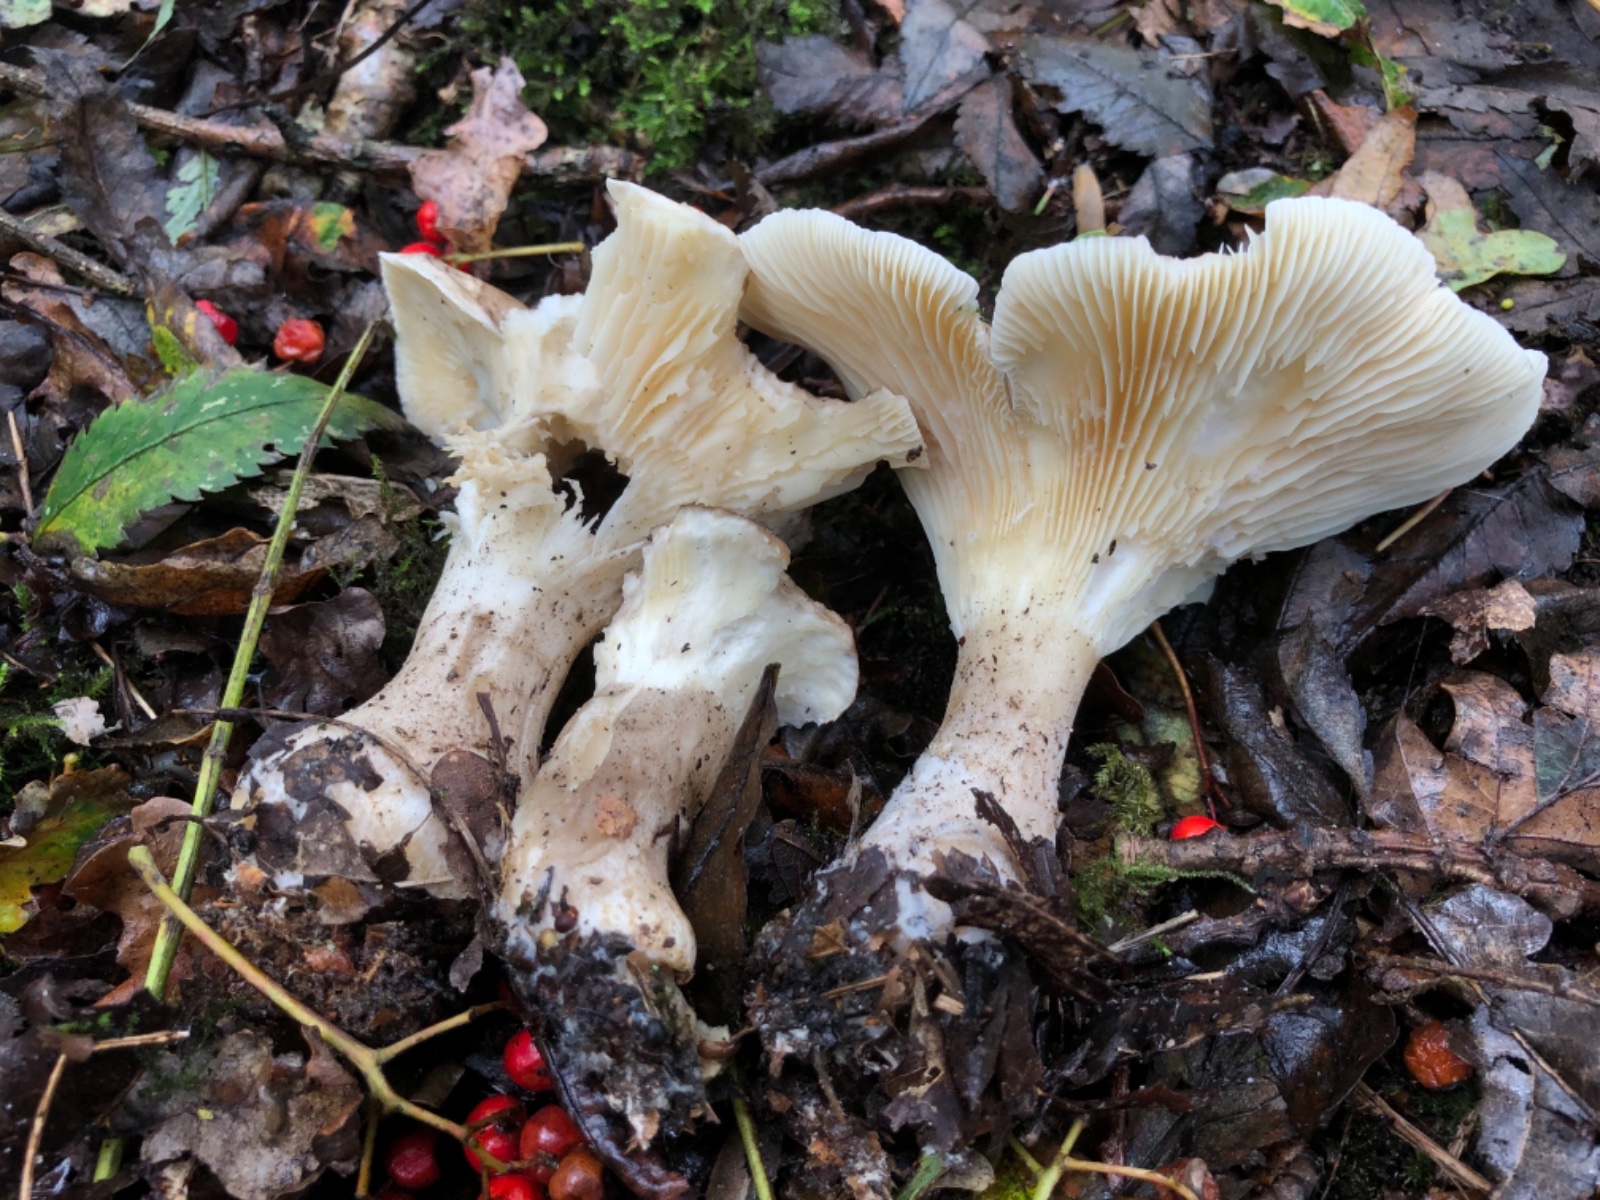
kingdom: Fungi
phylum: Basidiomycota
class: Agaricomycetes
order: Agaricales
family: Hygrophoraceae
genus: Ampulloclitocybe
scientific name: Ampulloclitocybe clavipes
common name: køllefod
